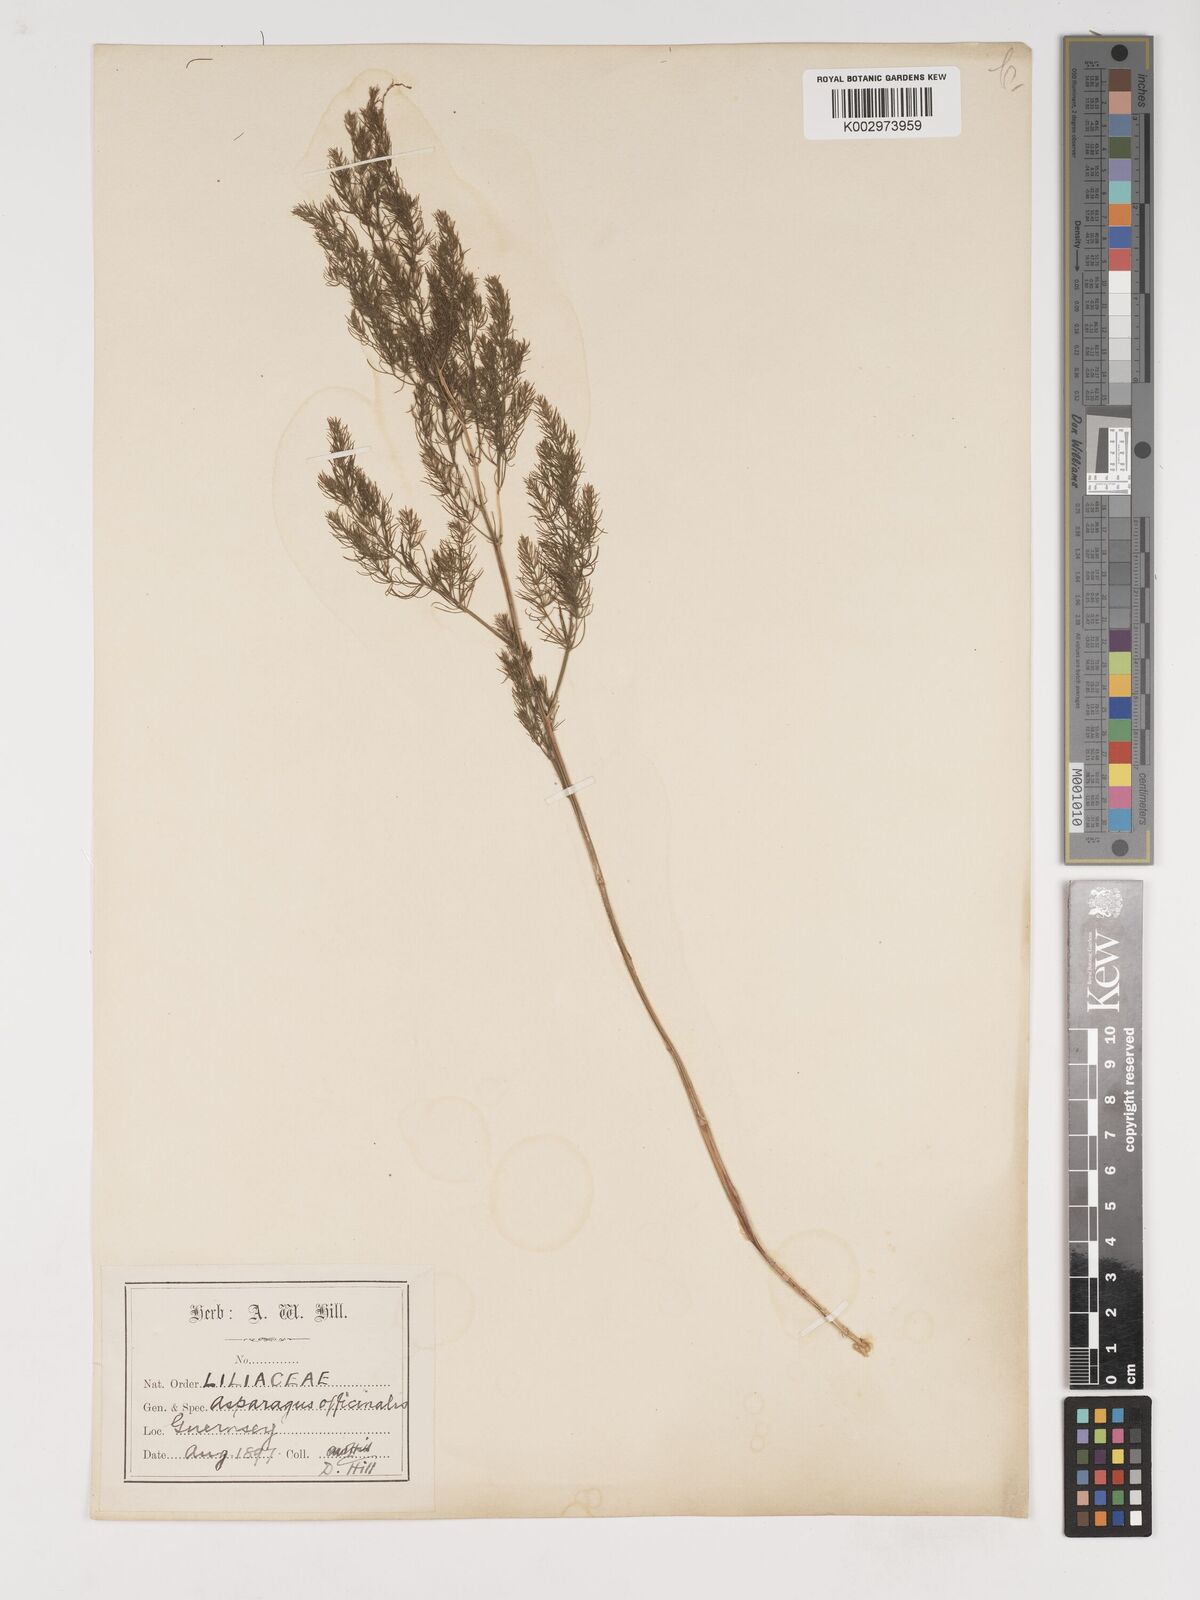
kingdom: Plantae
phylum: Tracheophyta
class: Liliopsida
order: Asparagales
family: Asparagaceae
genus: Asparagus
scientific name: Asparagus officinalis
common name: Garden asparagus
